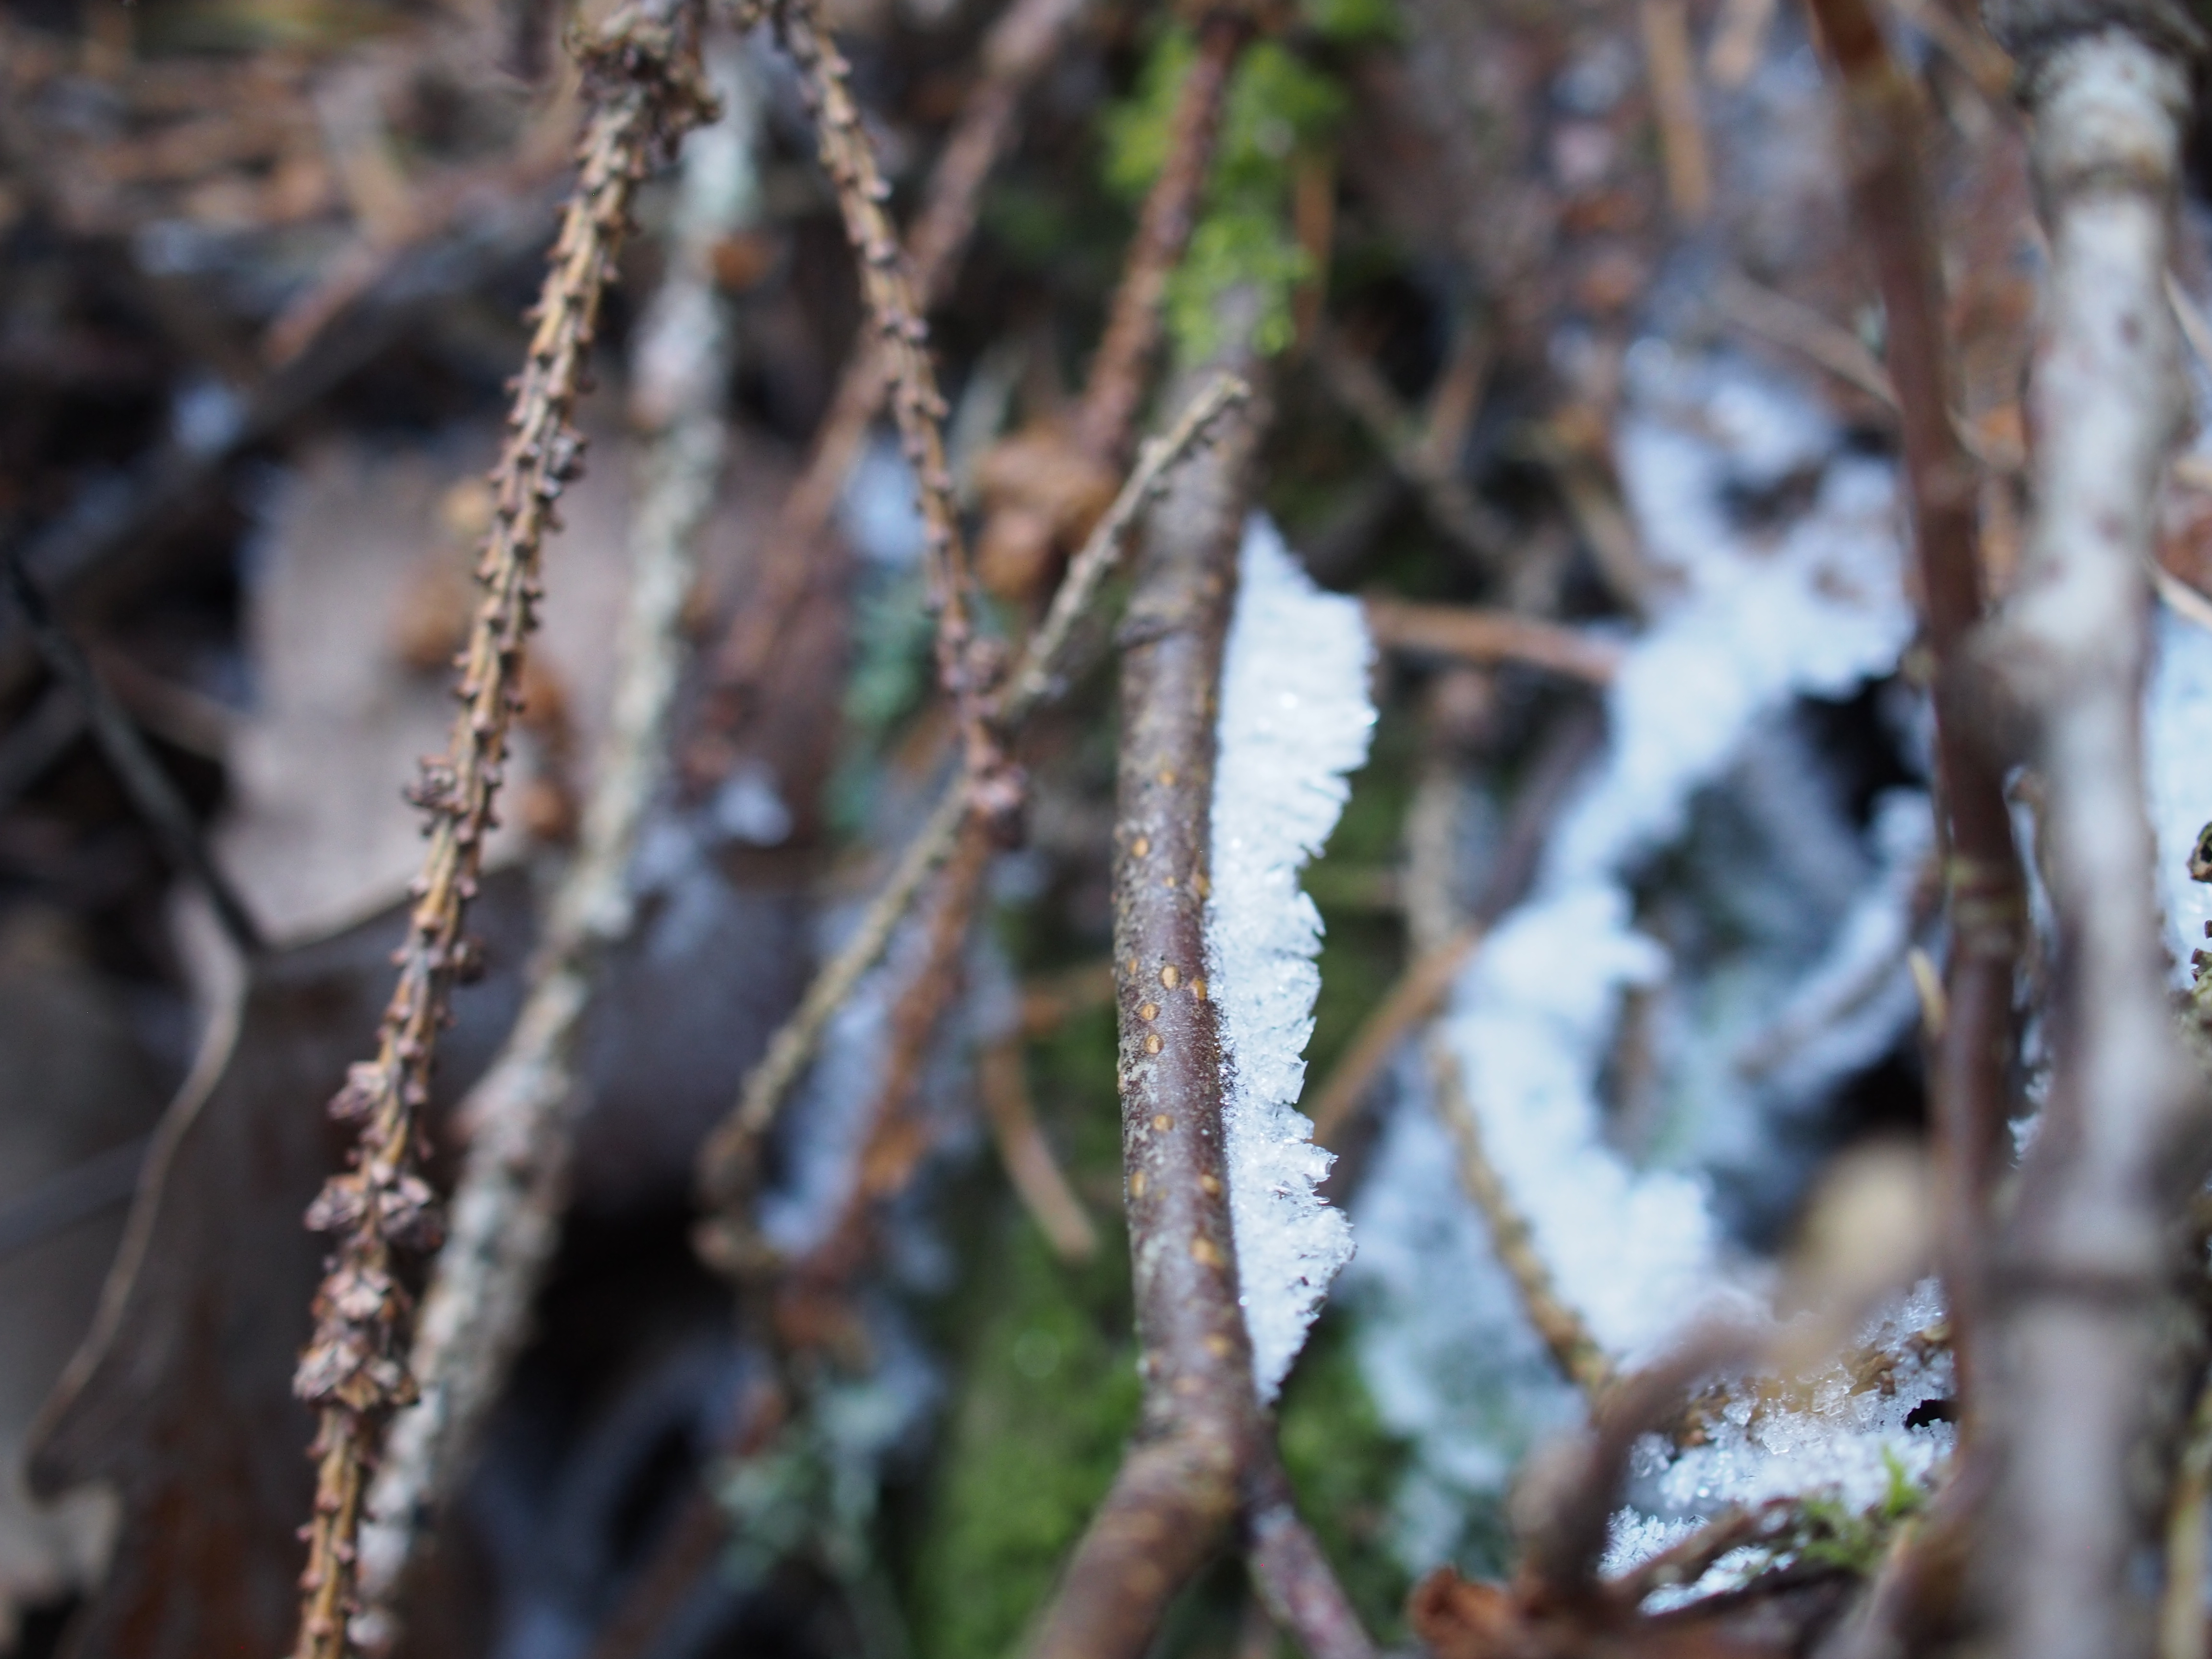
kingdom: Fungi
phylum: Basidiomycota
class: Agaricomycetes
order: Auriculariales
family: Auriculariaceae
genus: Exidiopsis
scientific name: Exidiopsis effusa
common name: Hair ice crust
